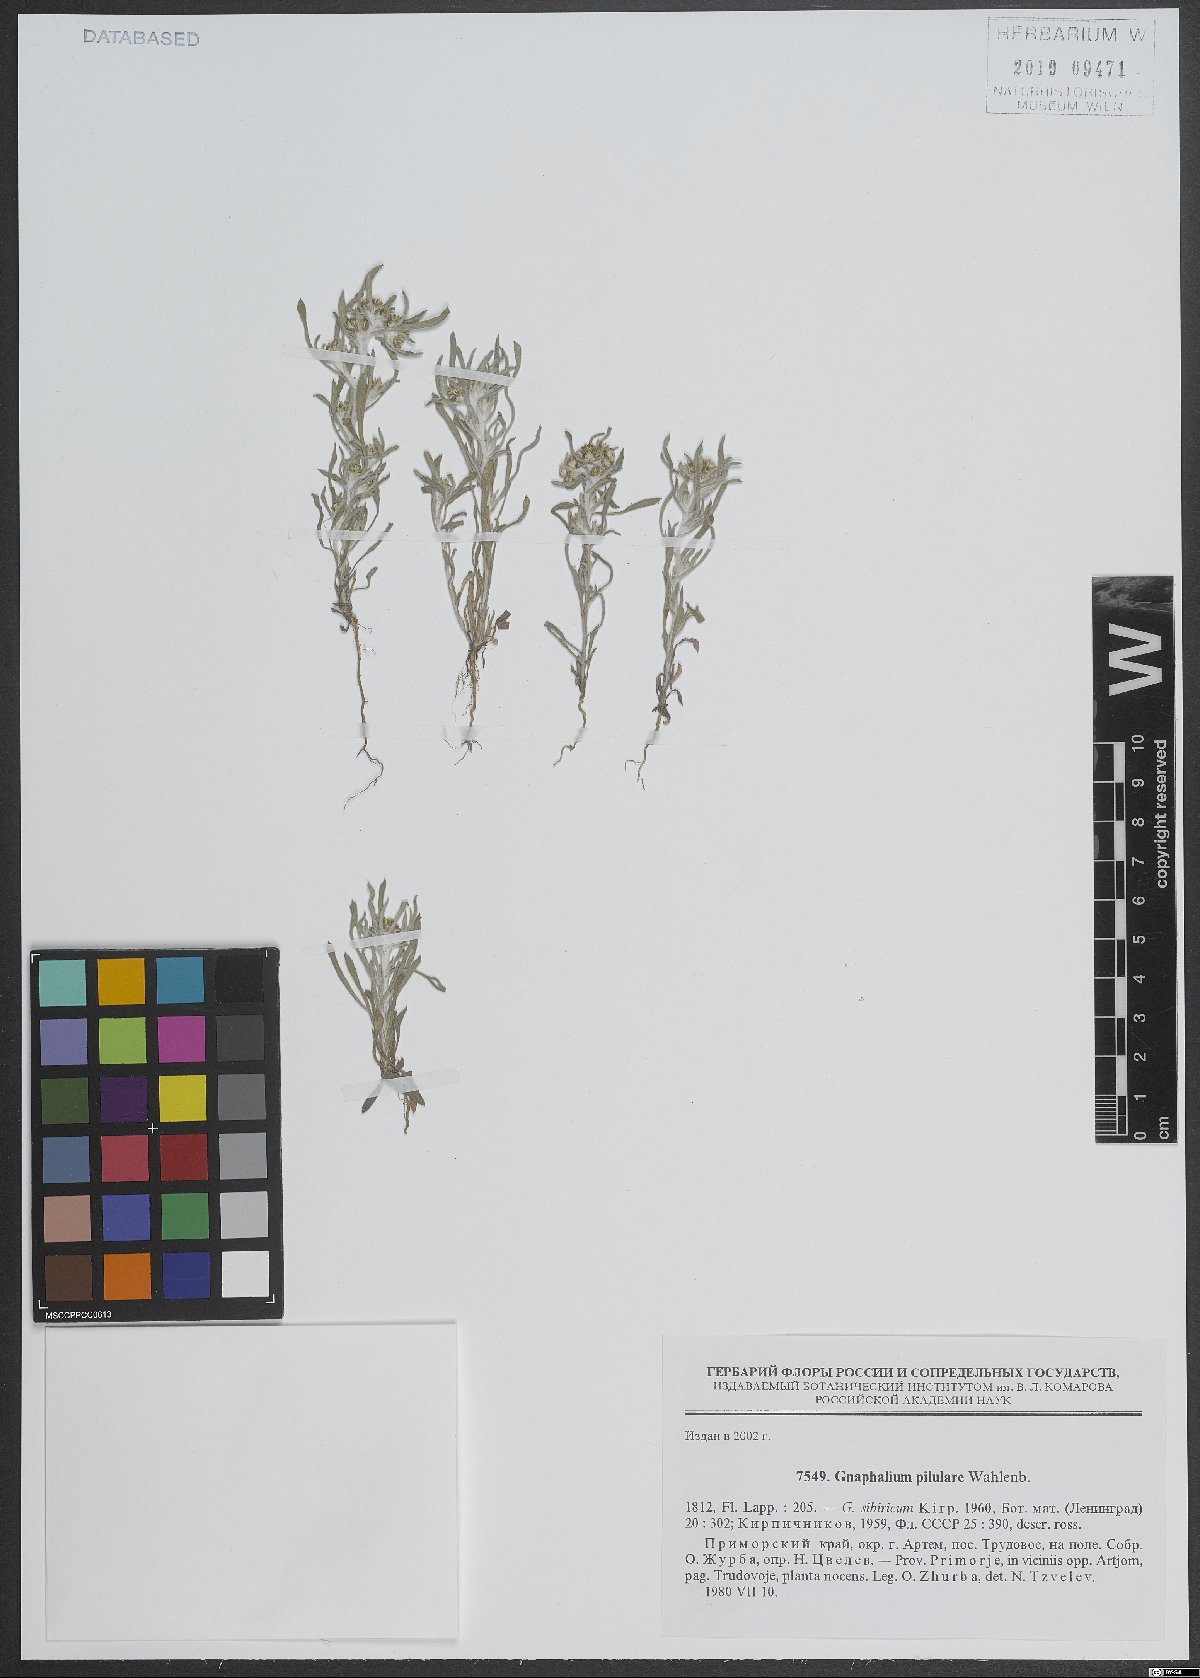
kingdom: Plantae
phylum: Tracheophyta
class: Magnoliopsida
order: Asterales
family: Asteraceae
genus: Gnaphalium
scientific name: Gnaphalium pilulare
